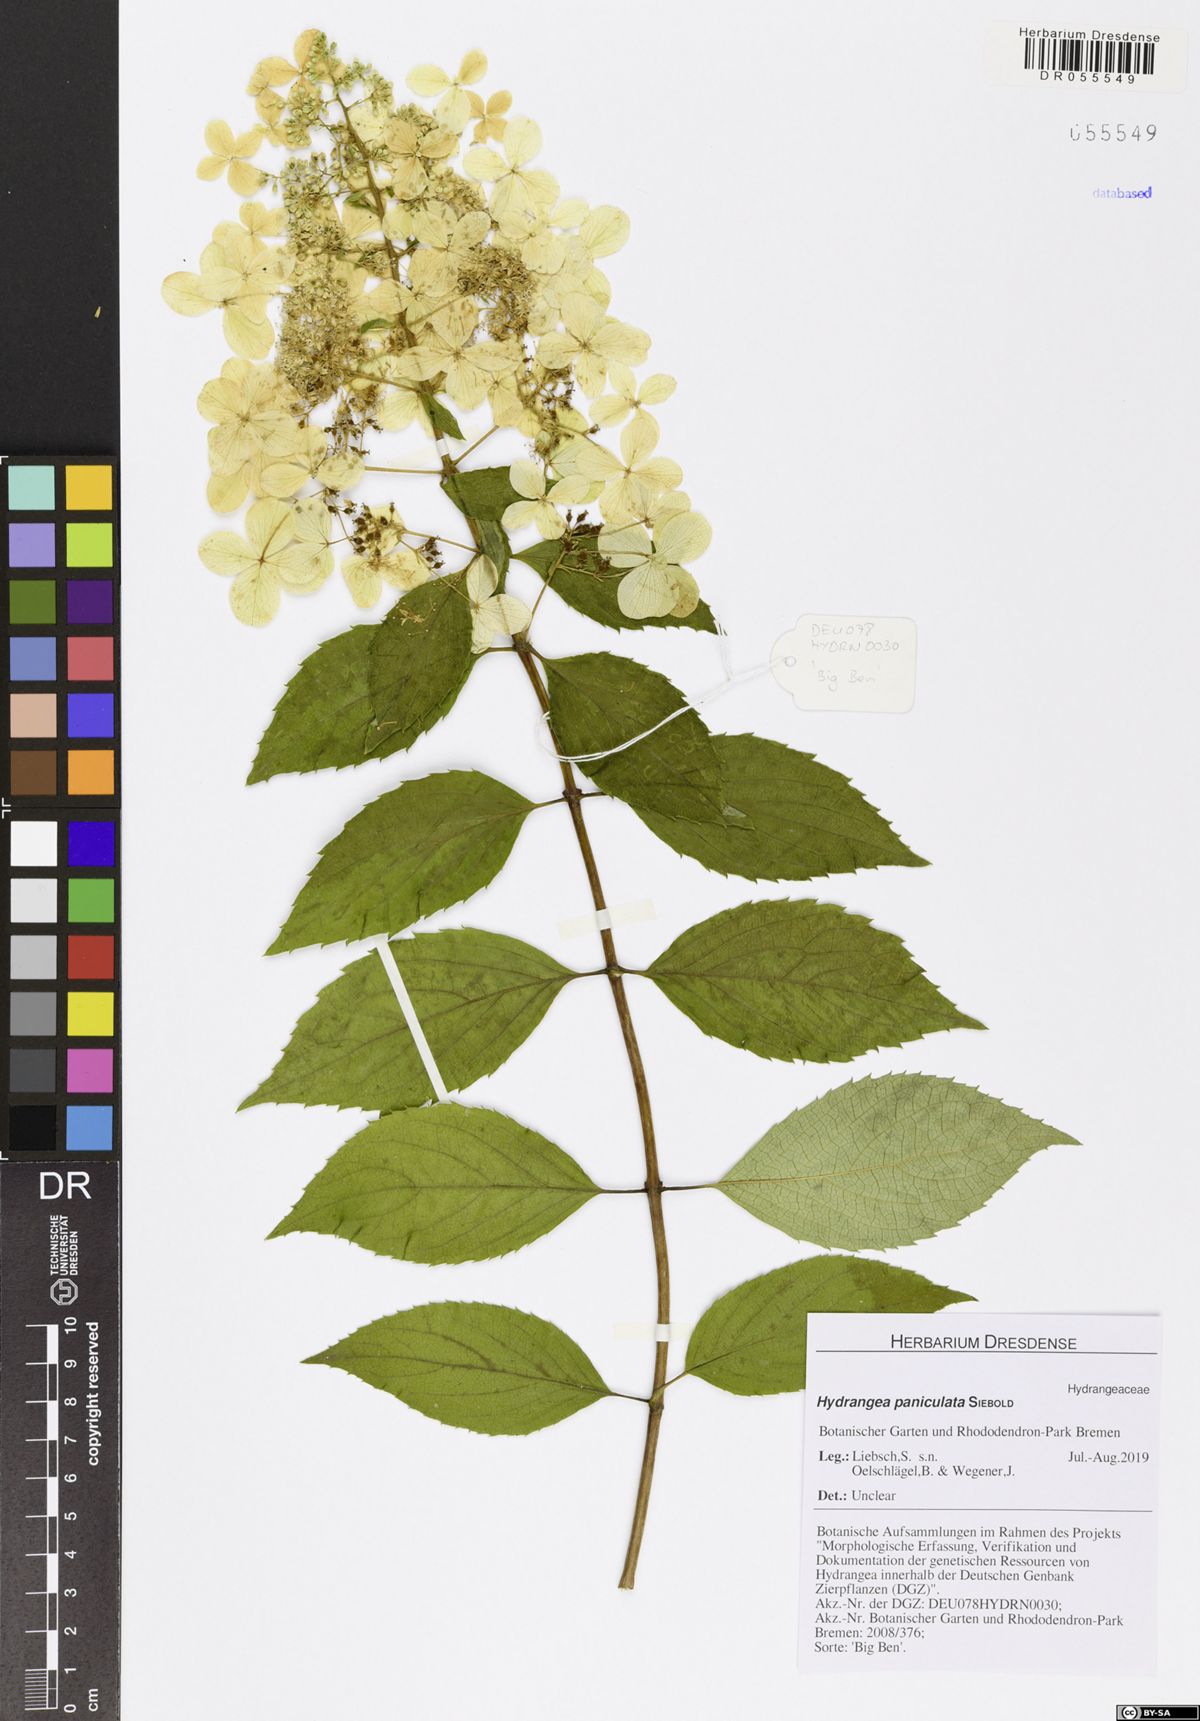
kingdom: Plantae
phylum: Tracheophyta
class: Magnoliopsida
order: Cornales
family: Hydrangeaceae
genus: Hydrangea
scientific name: Hydrangea paniculata
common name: Panicled hydrangea
